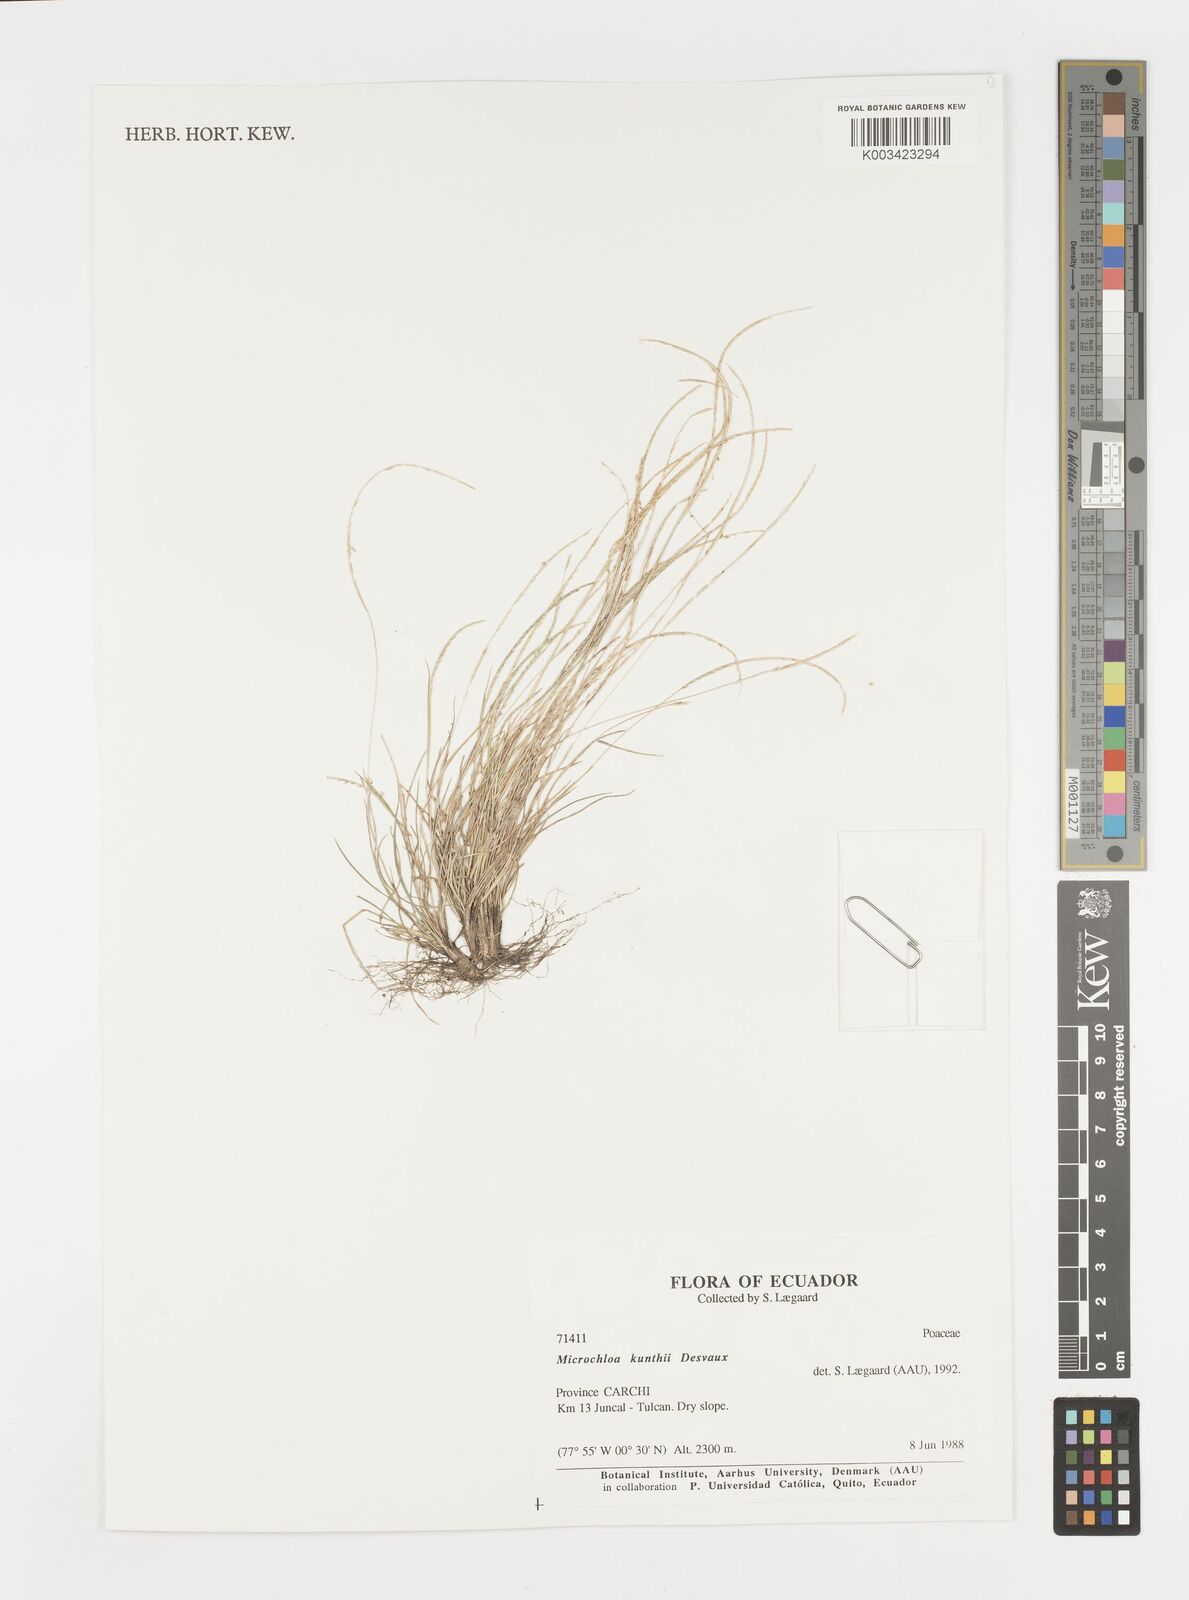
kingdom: Plantae
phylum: Tracheophyta
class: Liliopsida
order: Poales
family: Poaceae
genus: Microchloa
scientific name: Microchloa kunthii
